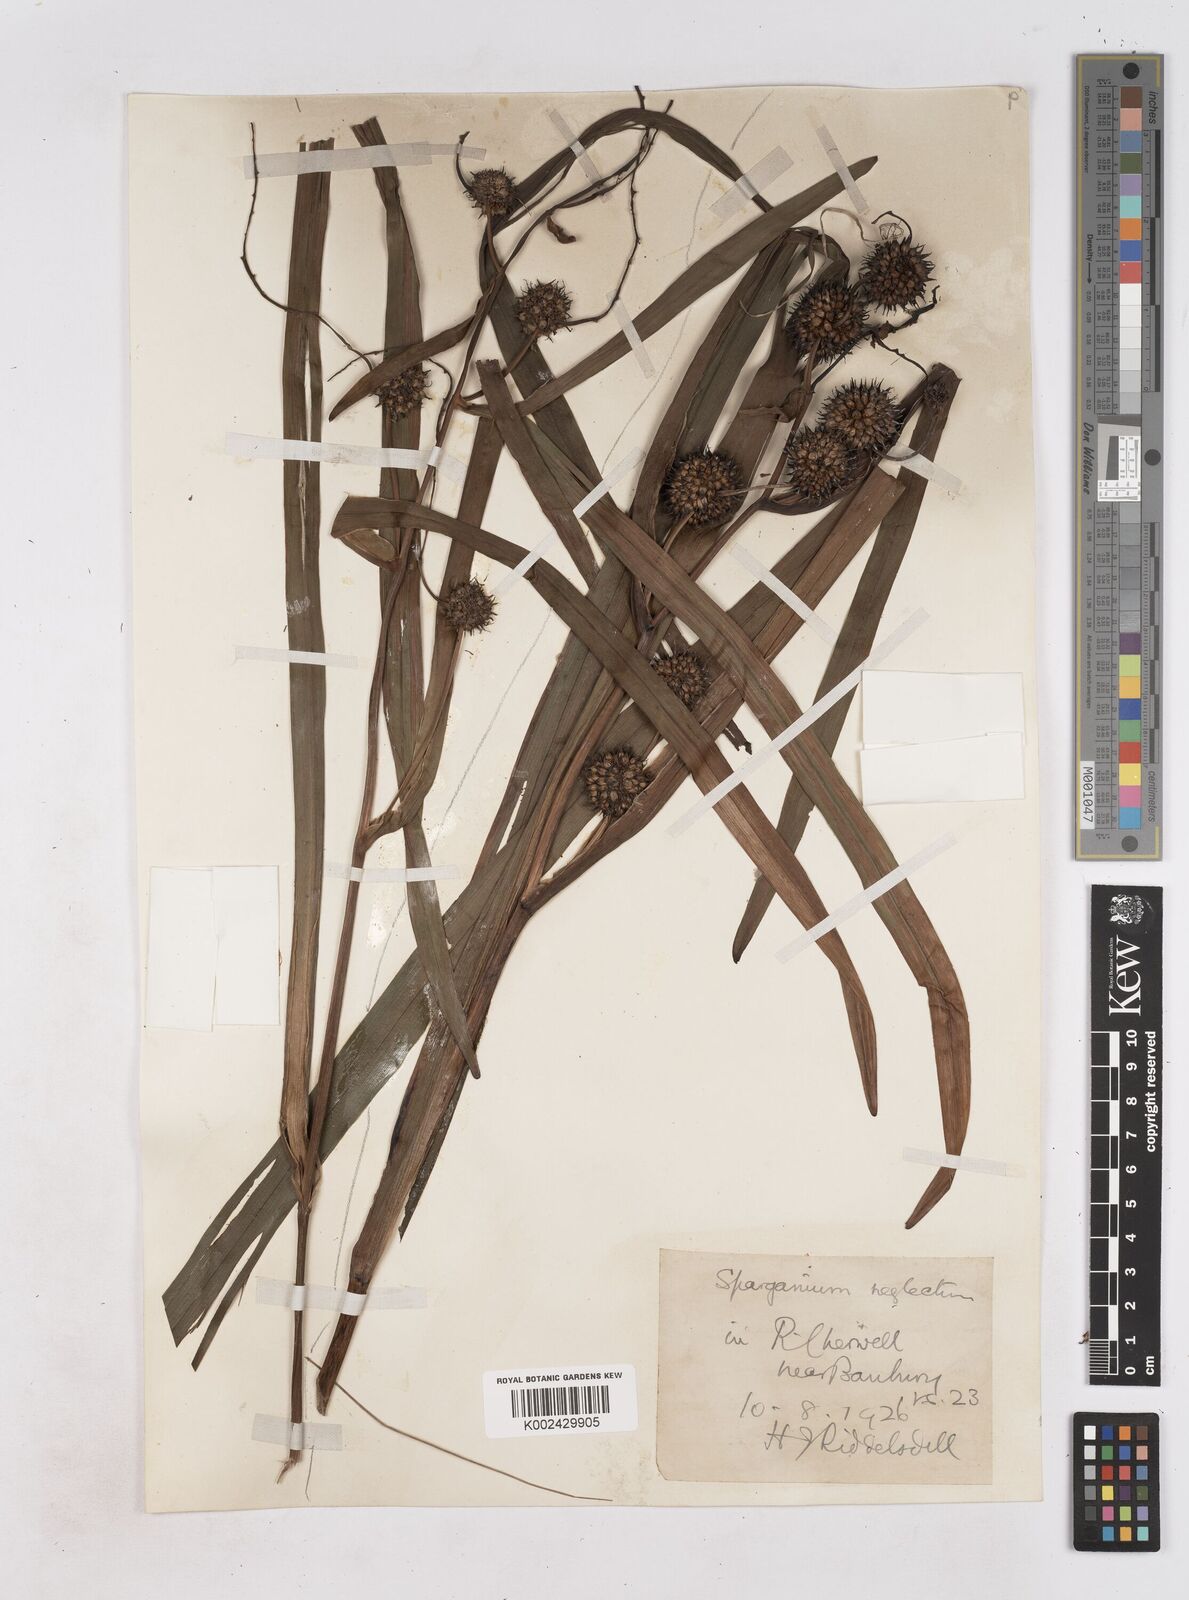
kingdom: Plantae
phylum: Tracheophyta
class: Liliopsida
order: Poales
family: Typhaceae
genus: Sparganium
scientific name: Sparganium erectum
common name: Branched bur-reed
